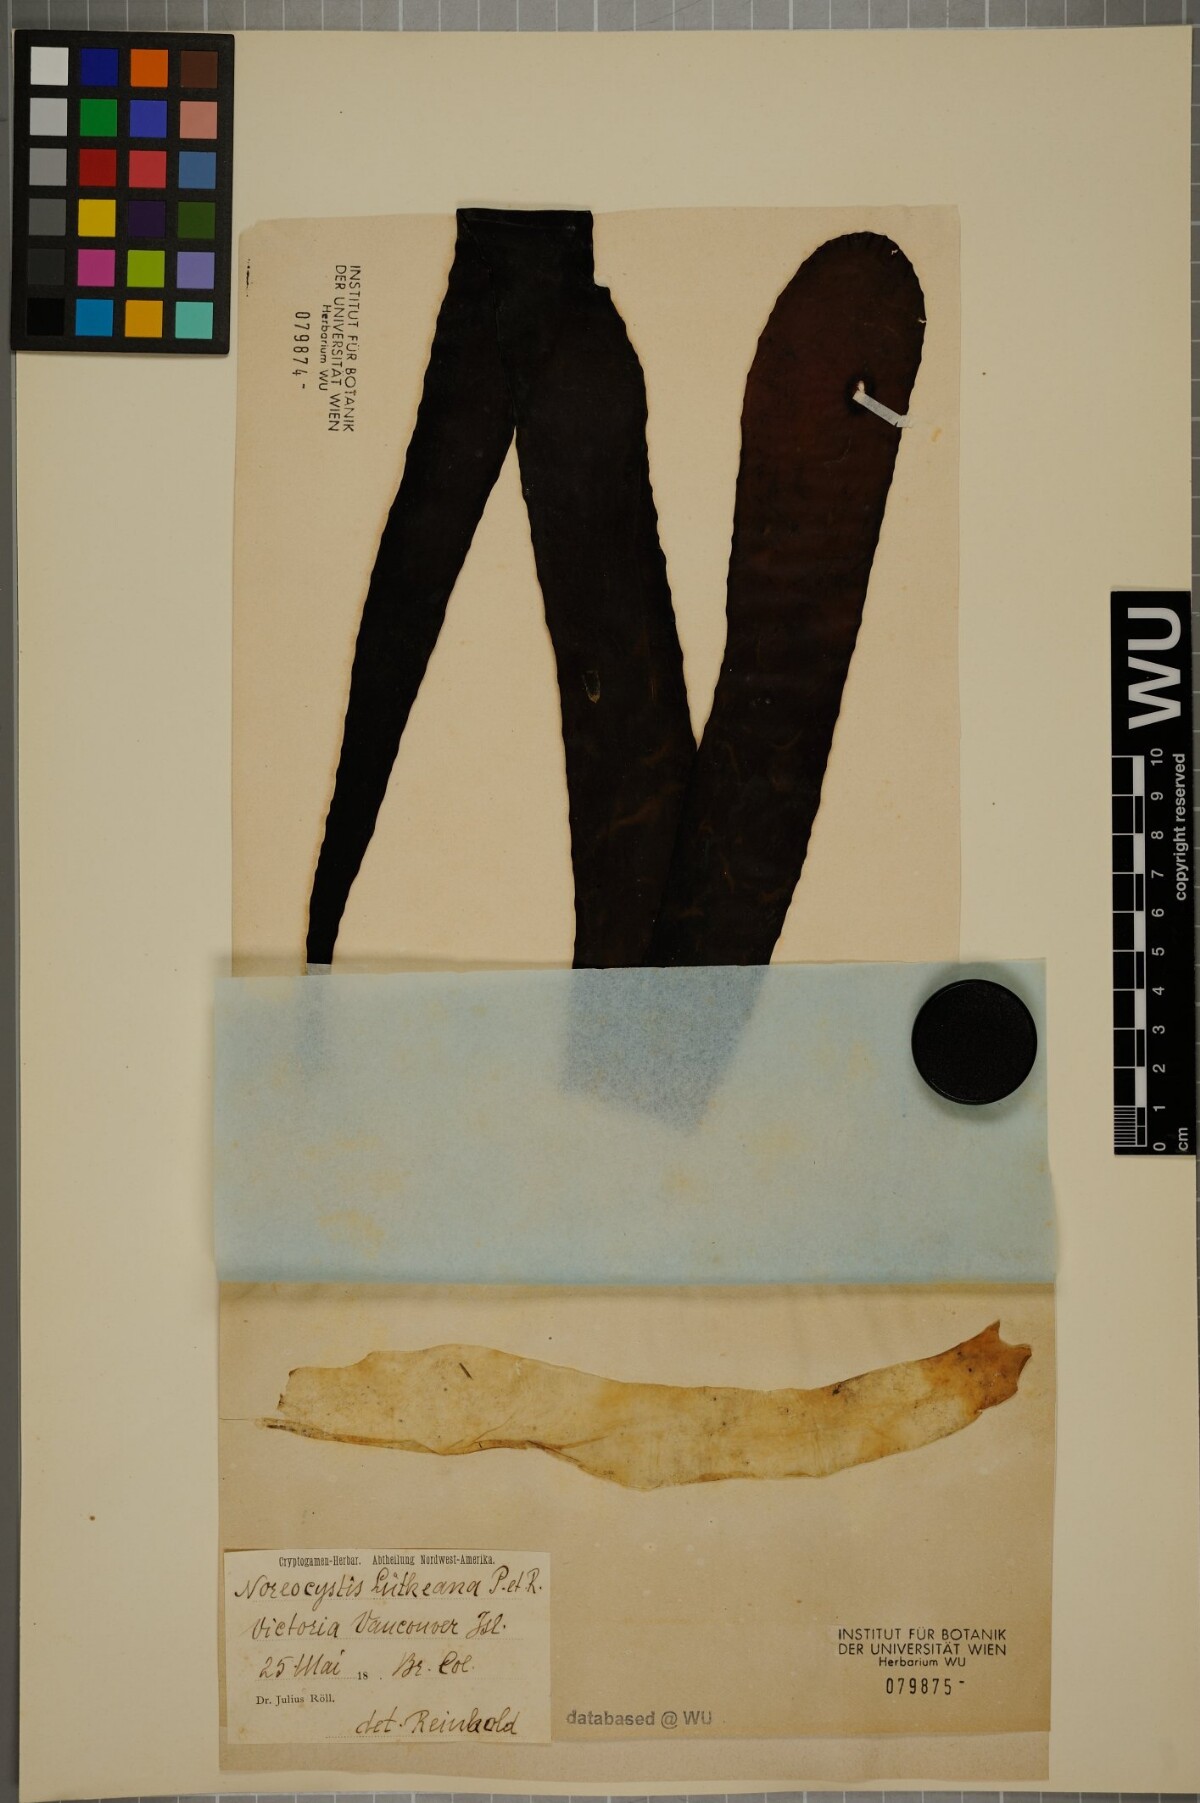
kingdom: Chromista
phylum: Ochrophyta
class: Phaeophyceae
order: Laminariales
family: Laminariaceae
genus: Nereocystis
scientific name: Nereocystis luetkeana
